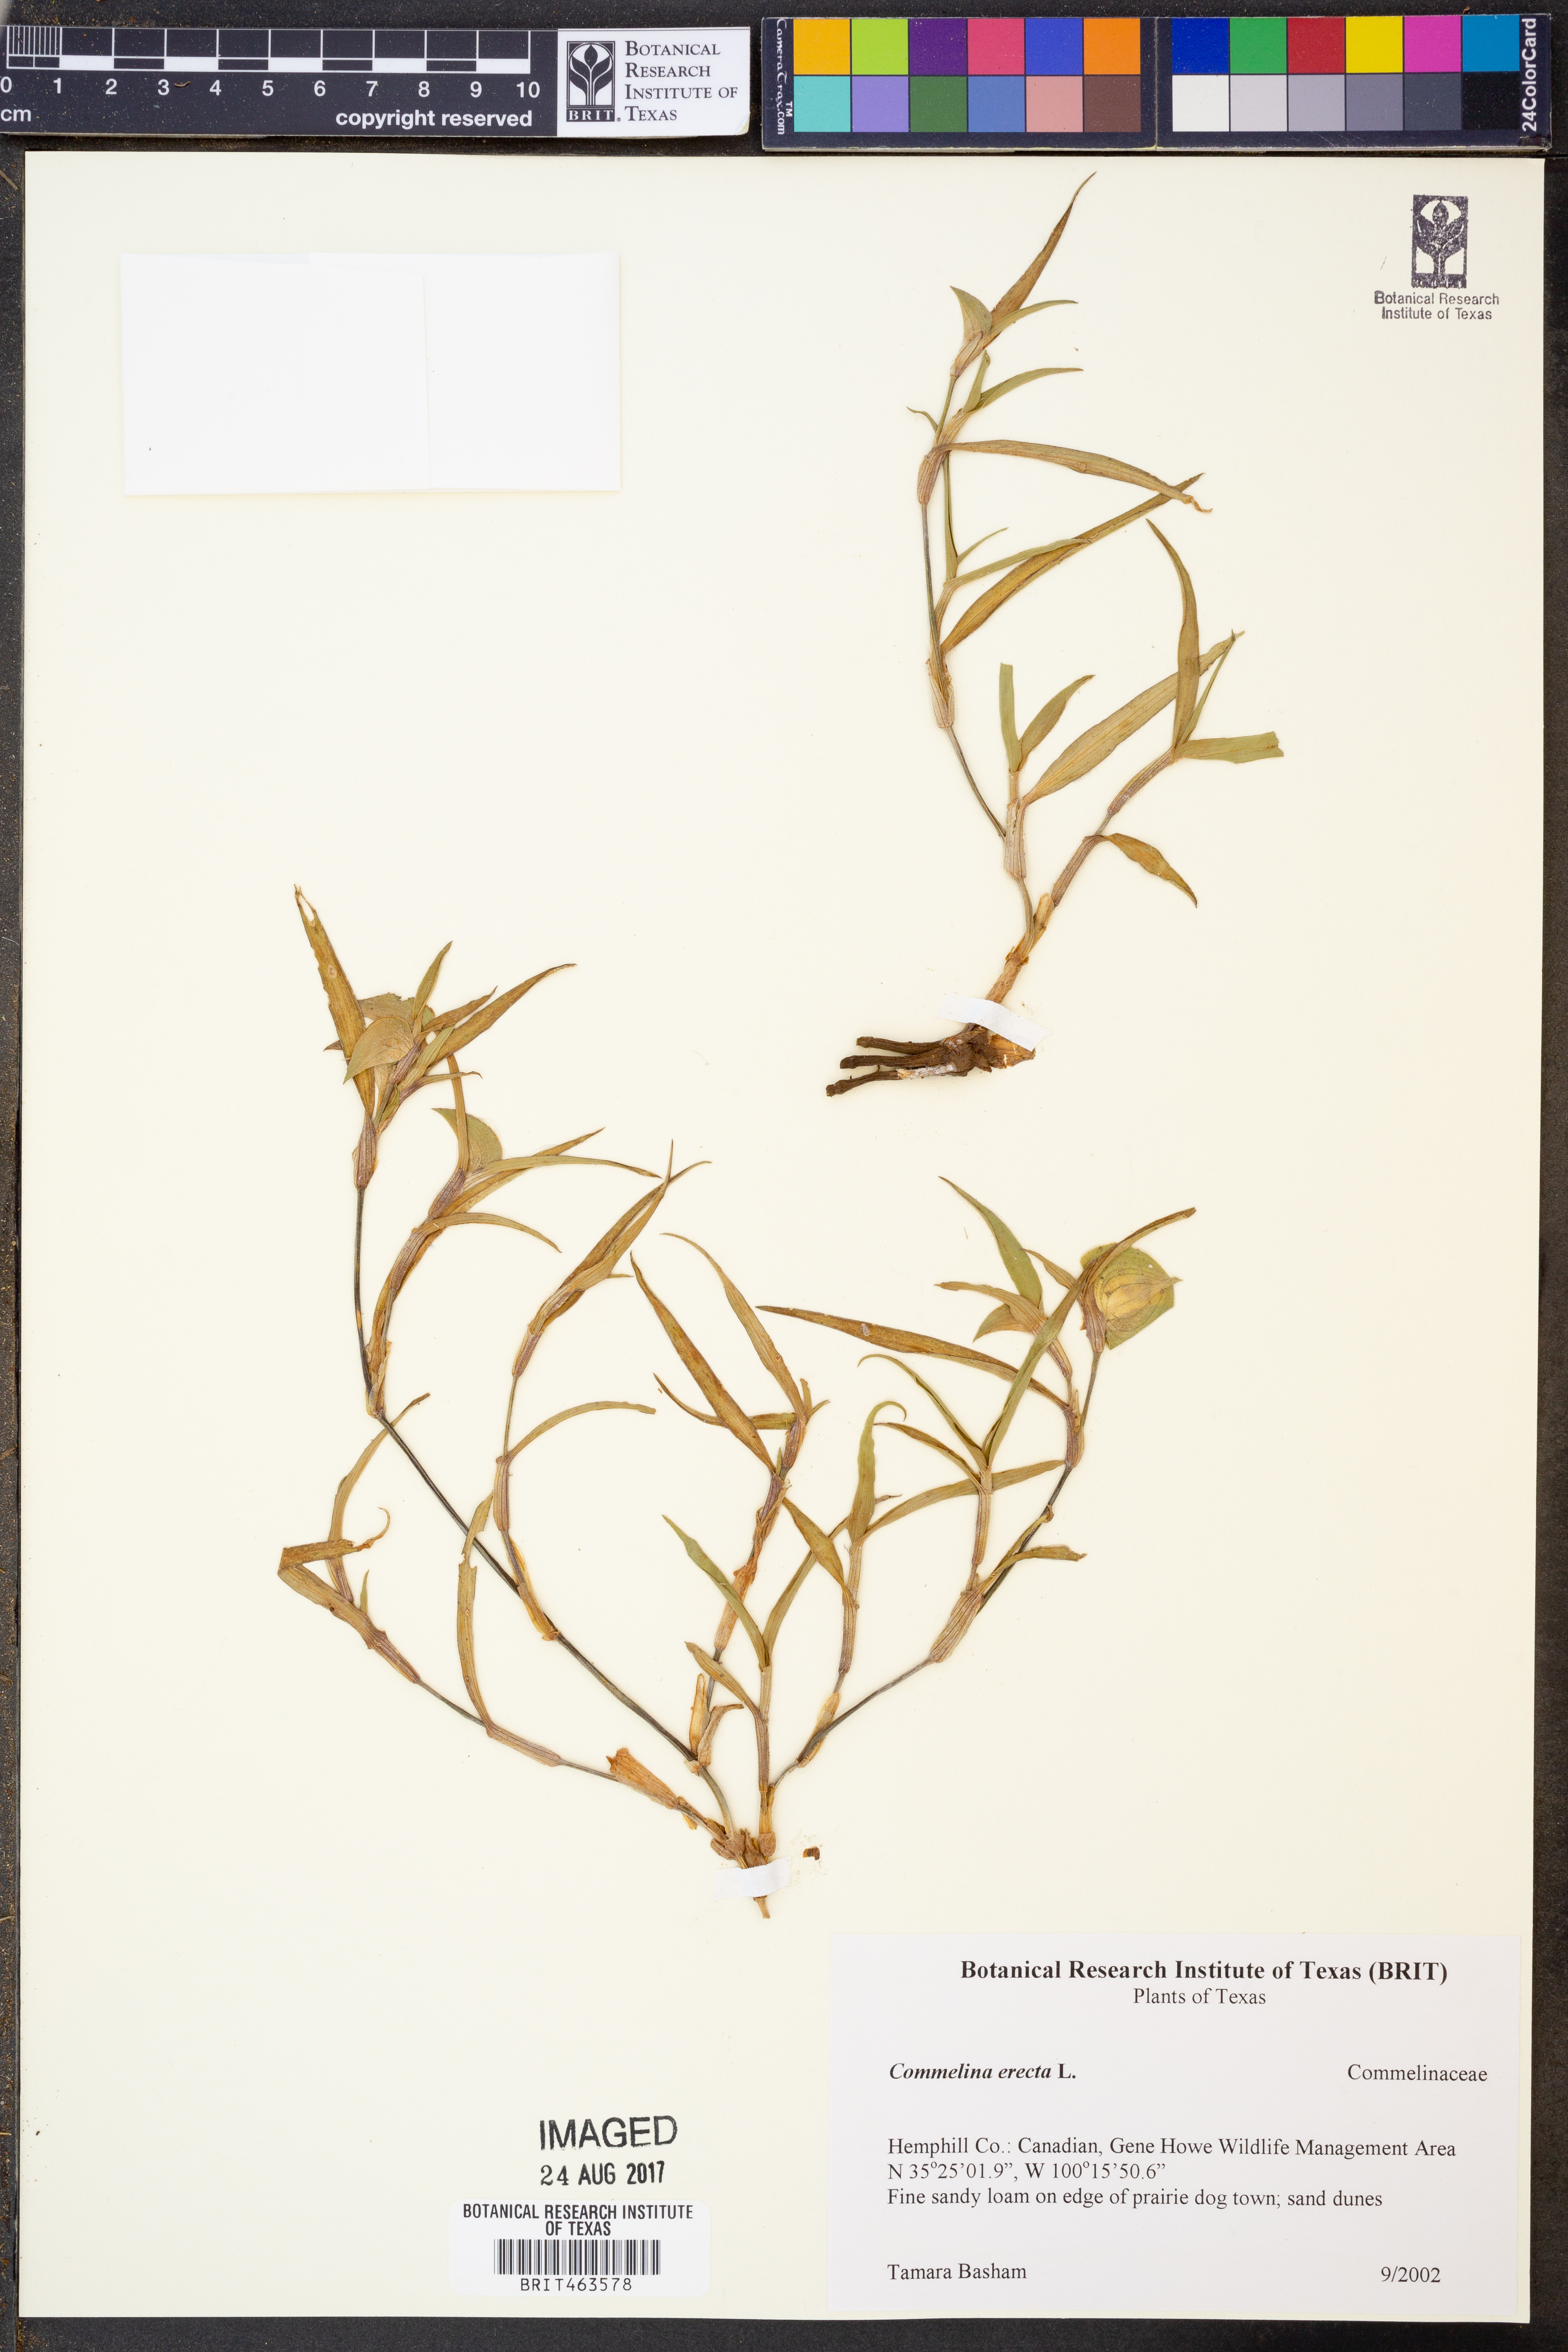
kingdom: Plantae
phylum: Tracheophyta
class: Liliopsida
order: Commelinales
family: Commelinaceae
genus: Commelina
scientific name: Commelina erecta
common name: Blousel blommetjie
